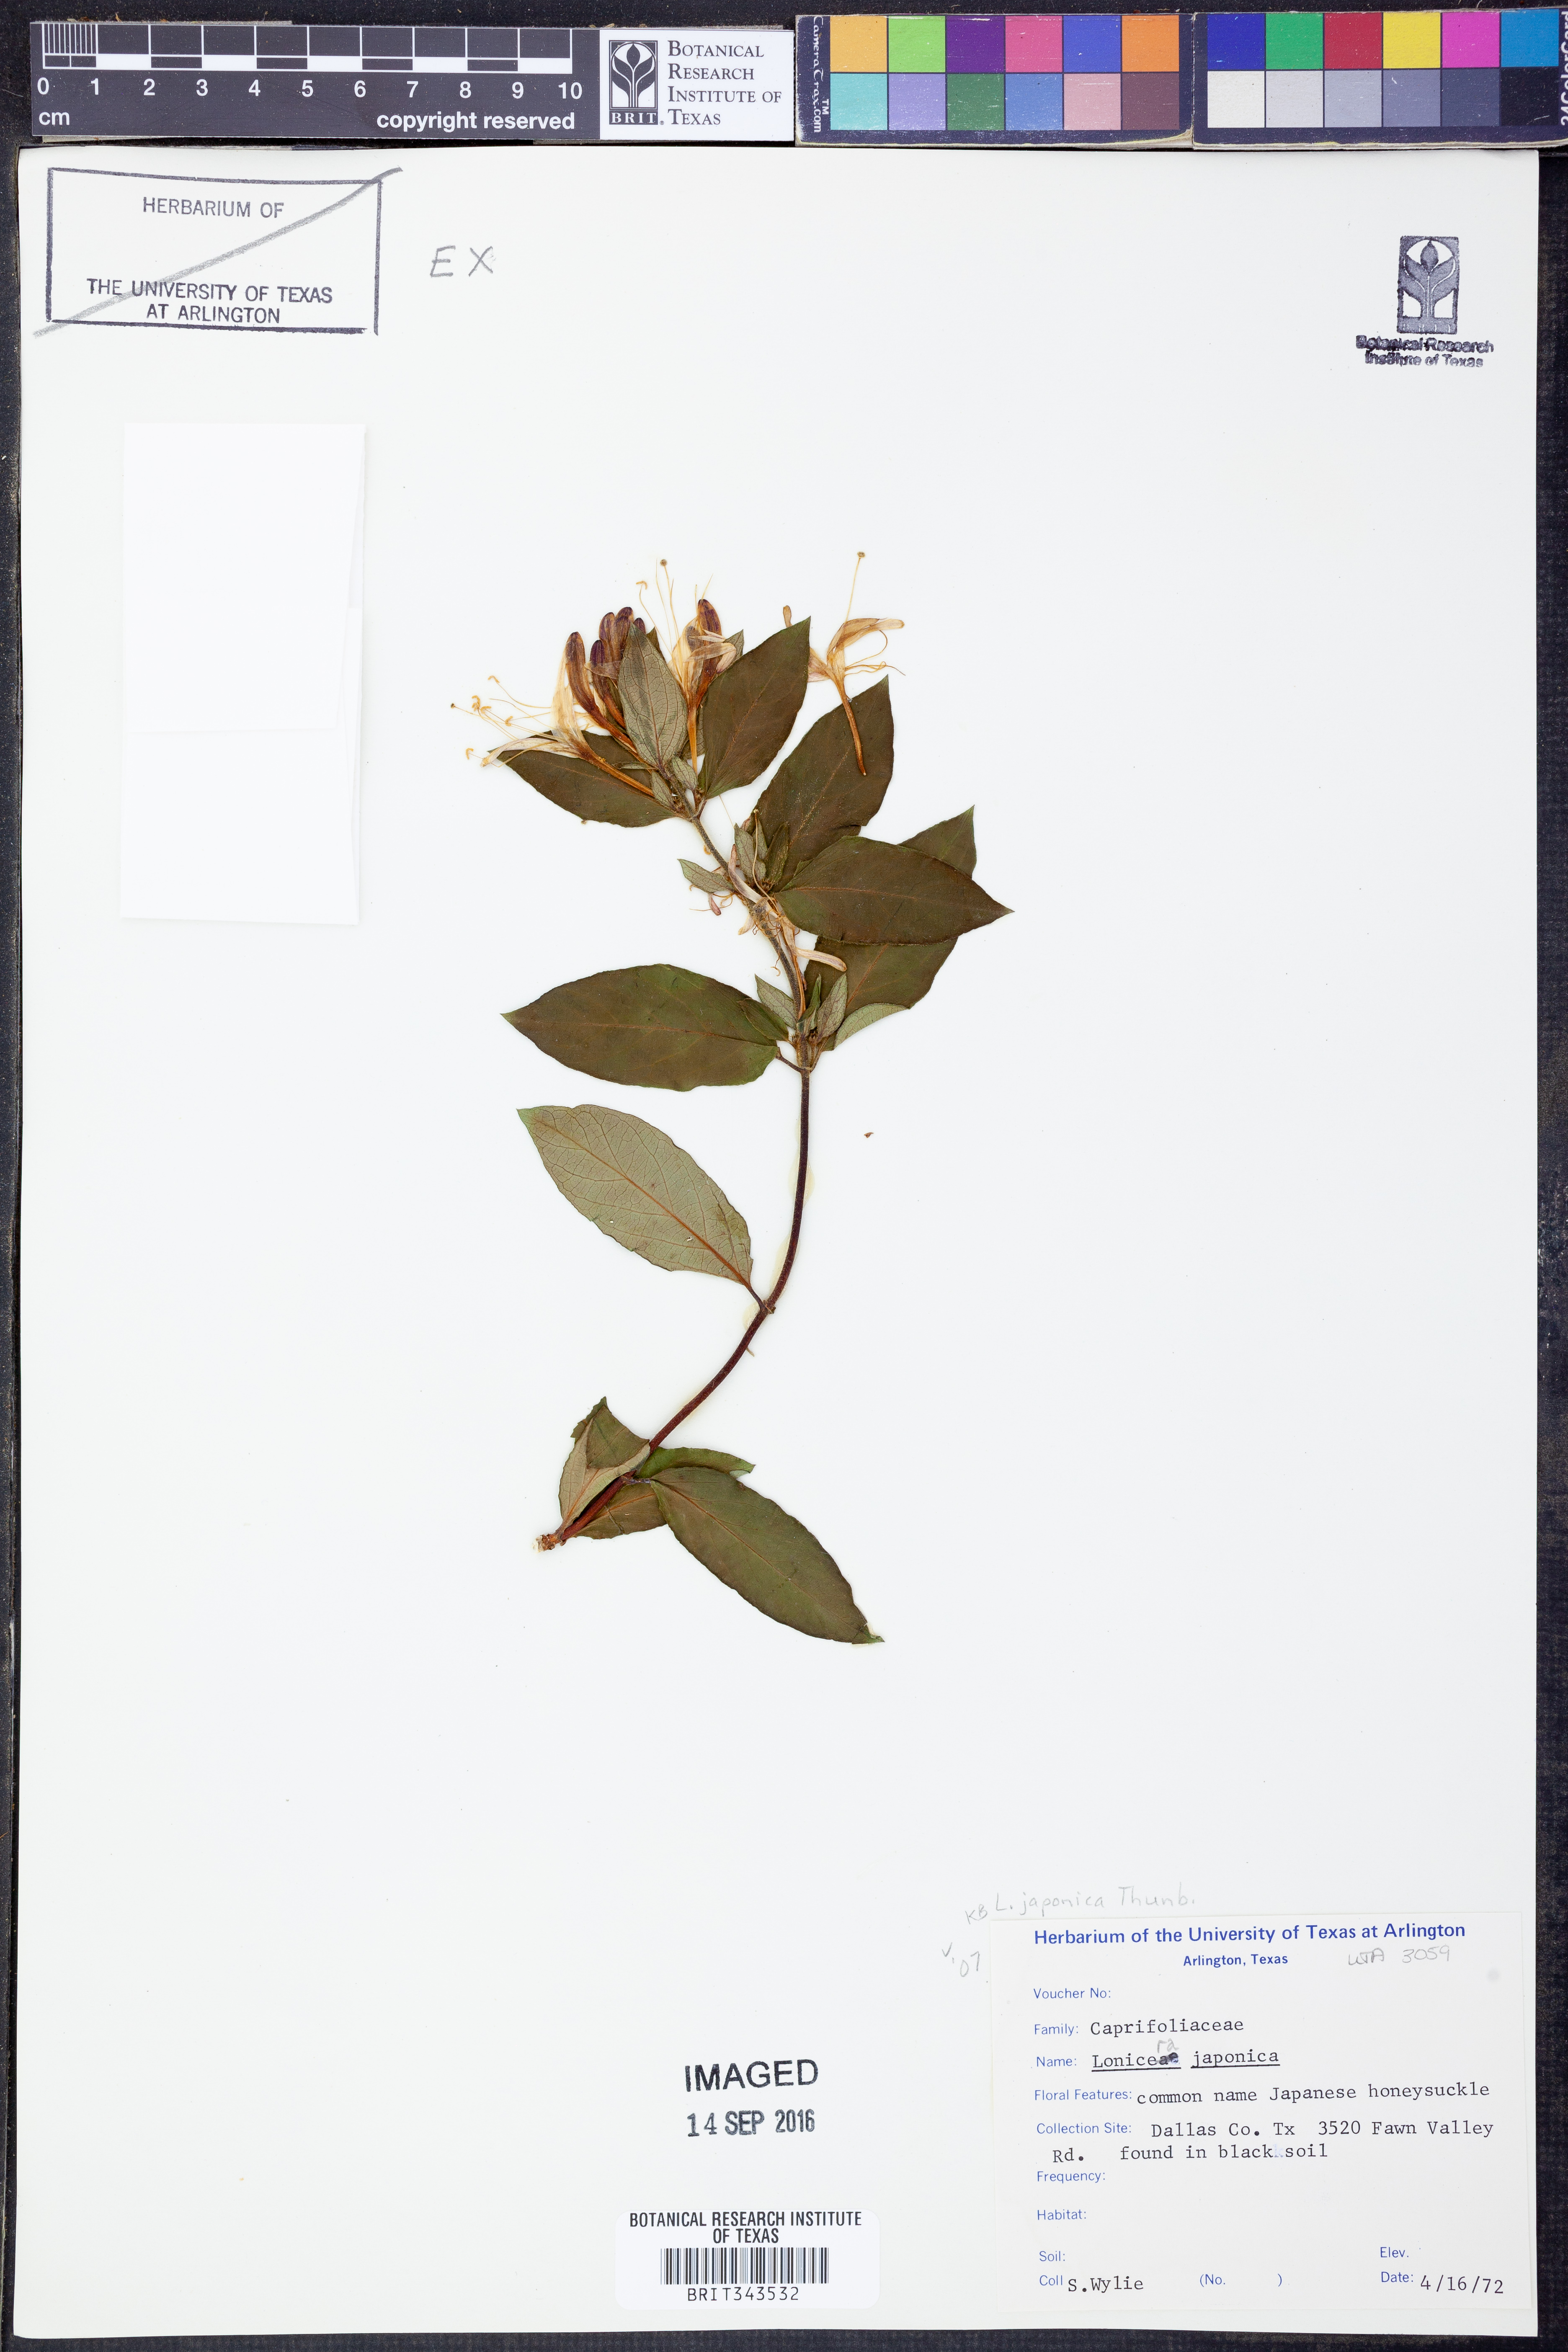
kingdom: Plantae
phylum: Tracheophyta
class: Magnoliopsida
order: Dipsacales
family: Caprifoliaceae
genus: Lonicera
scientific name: Lonicera japonica
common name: Japanese honeysuckle
